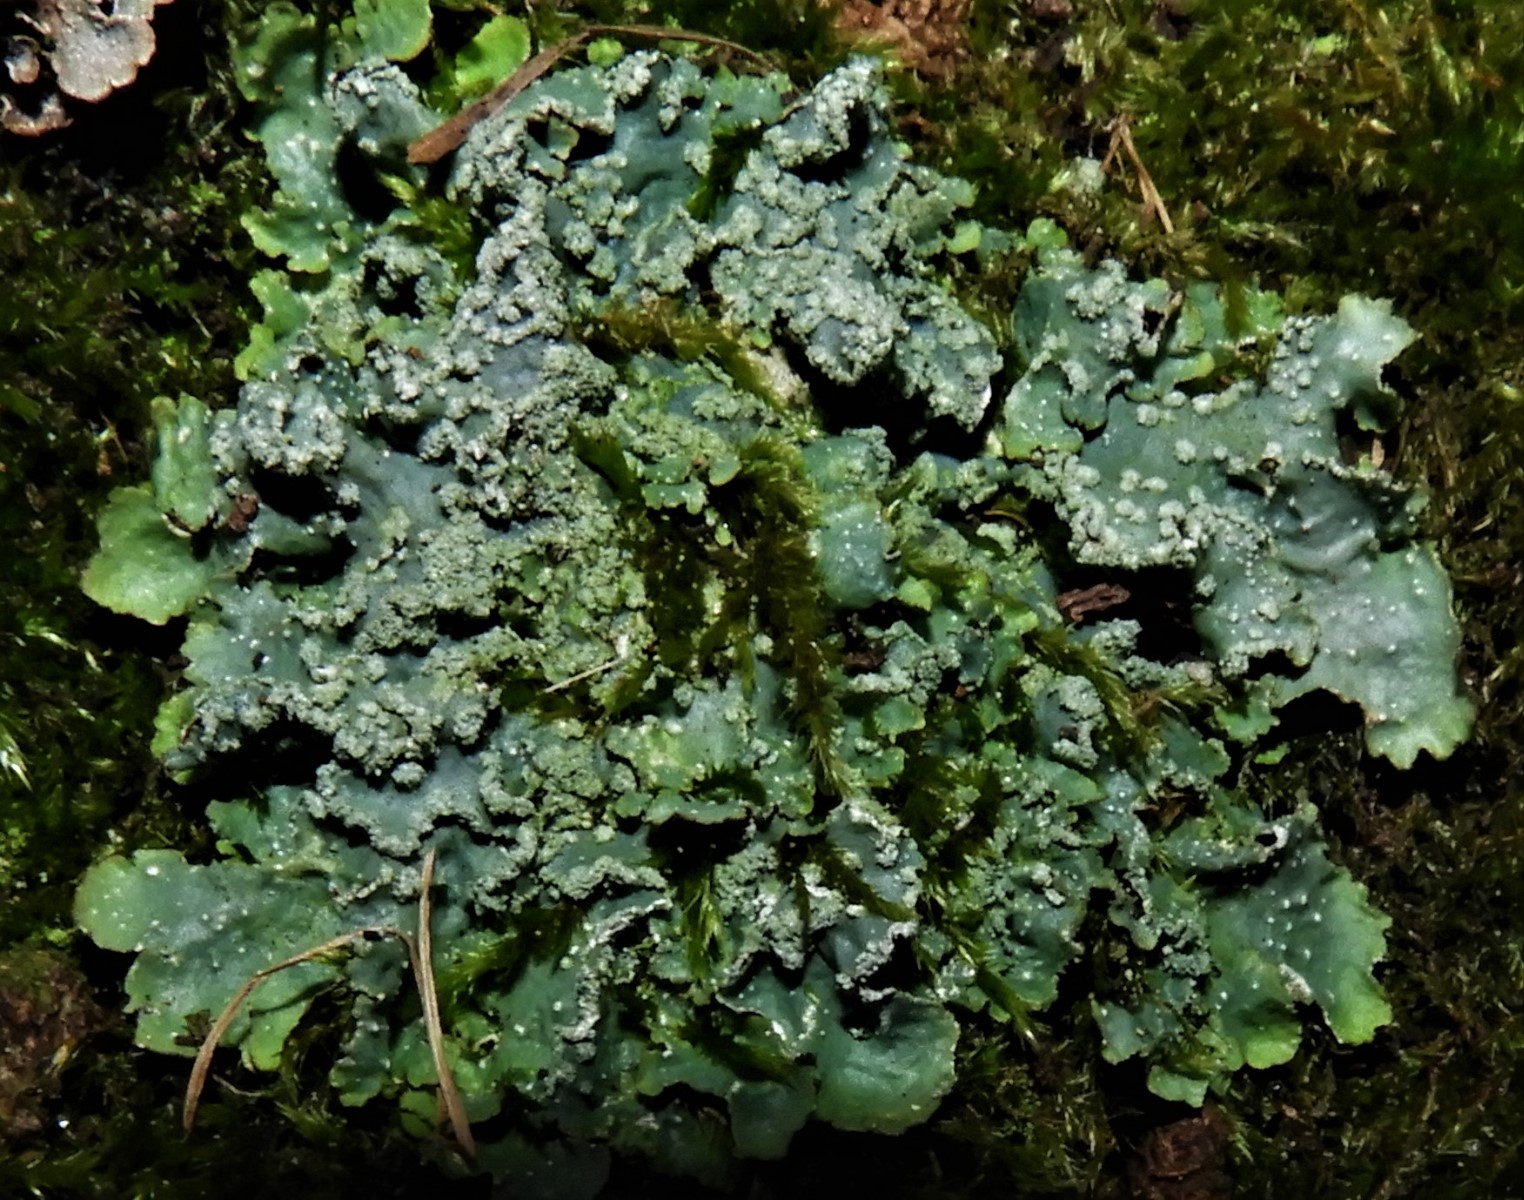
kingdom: Fungi
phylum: Ascomycota
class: Lecanoromycetes
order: Lecanorales
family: Parmeliaceae
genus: Punctelia
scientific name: Punctelia subrudecta
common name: punkt-skållav
